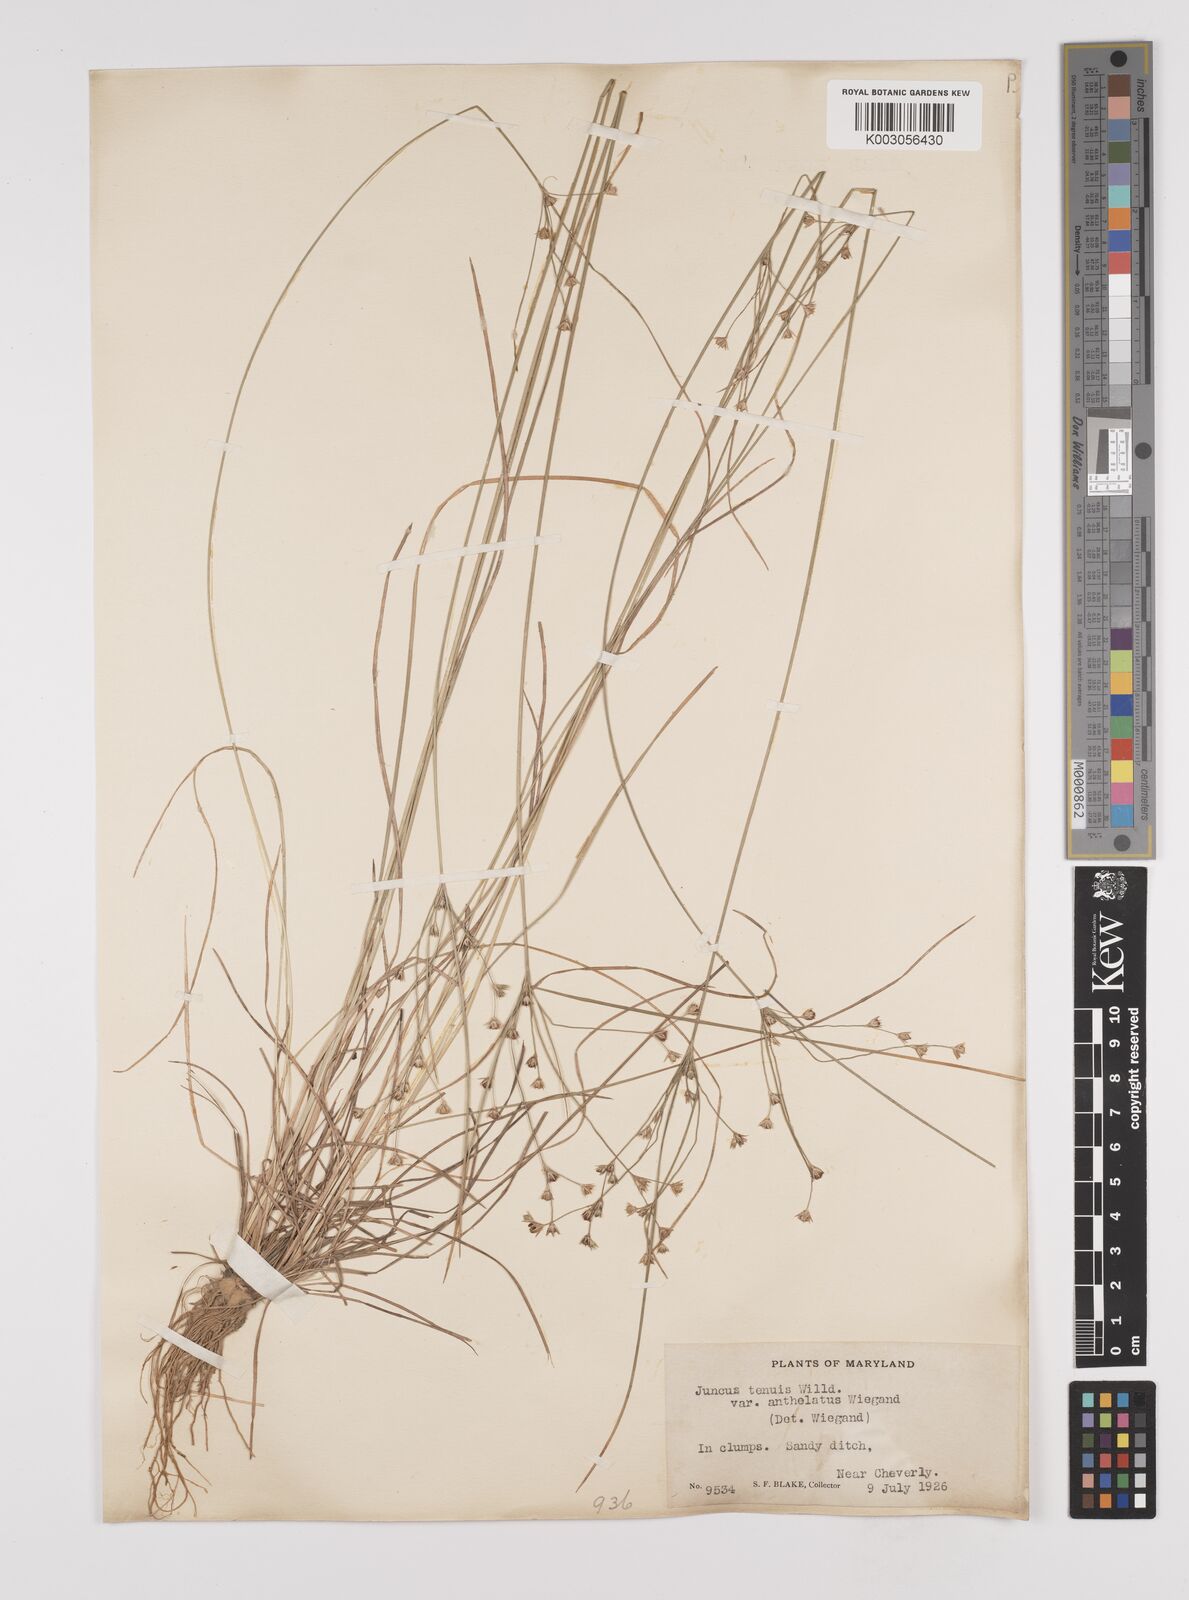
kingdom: Plantae
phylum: Tracheophyta
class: Liliopsida
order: Poales
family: Juncaceae
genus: Juncus
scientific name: Juncus anthelatus
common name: Giant path rush
